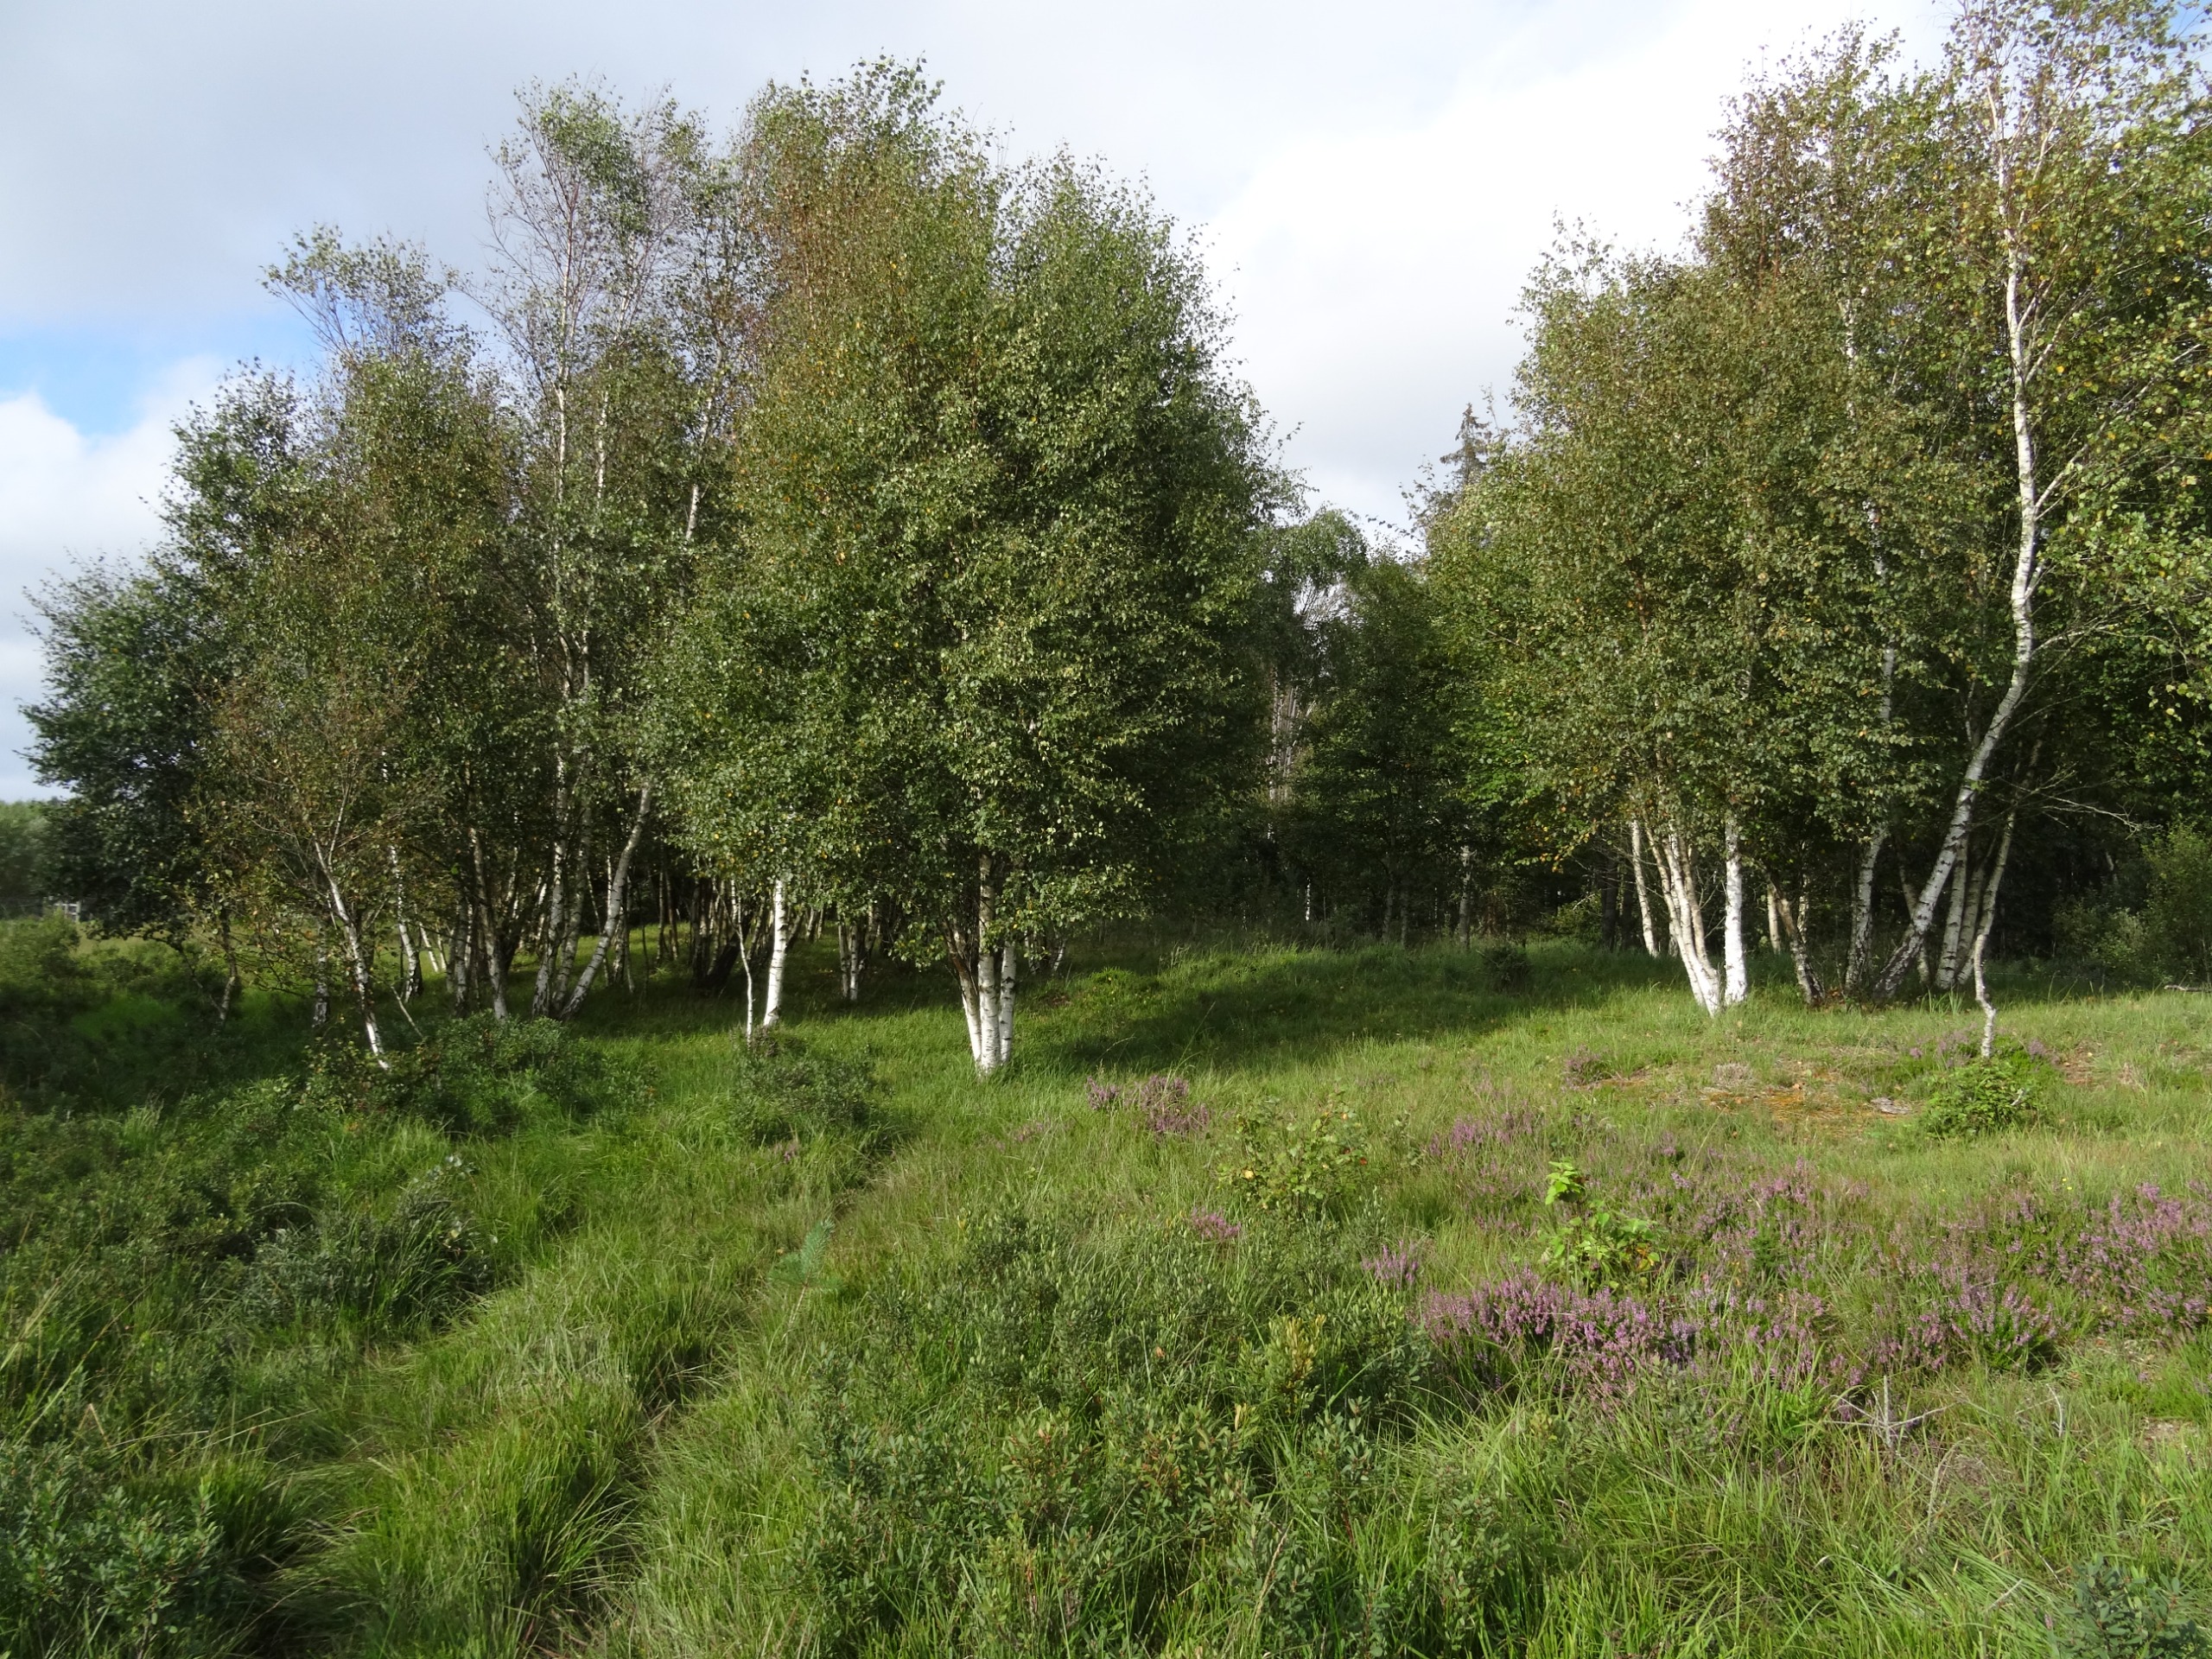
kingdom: Animalia
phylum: Arthropoda
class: Insecta
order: Lepidoptera
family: Nymphalidae
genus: Nymphalis
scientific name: Nymphalis antiopa
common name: Sørgekåbe
